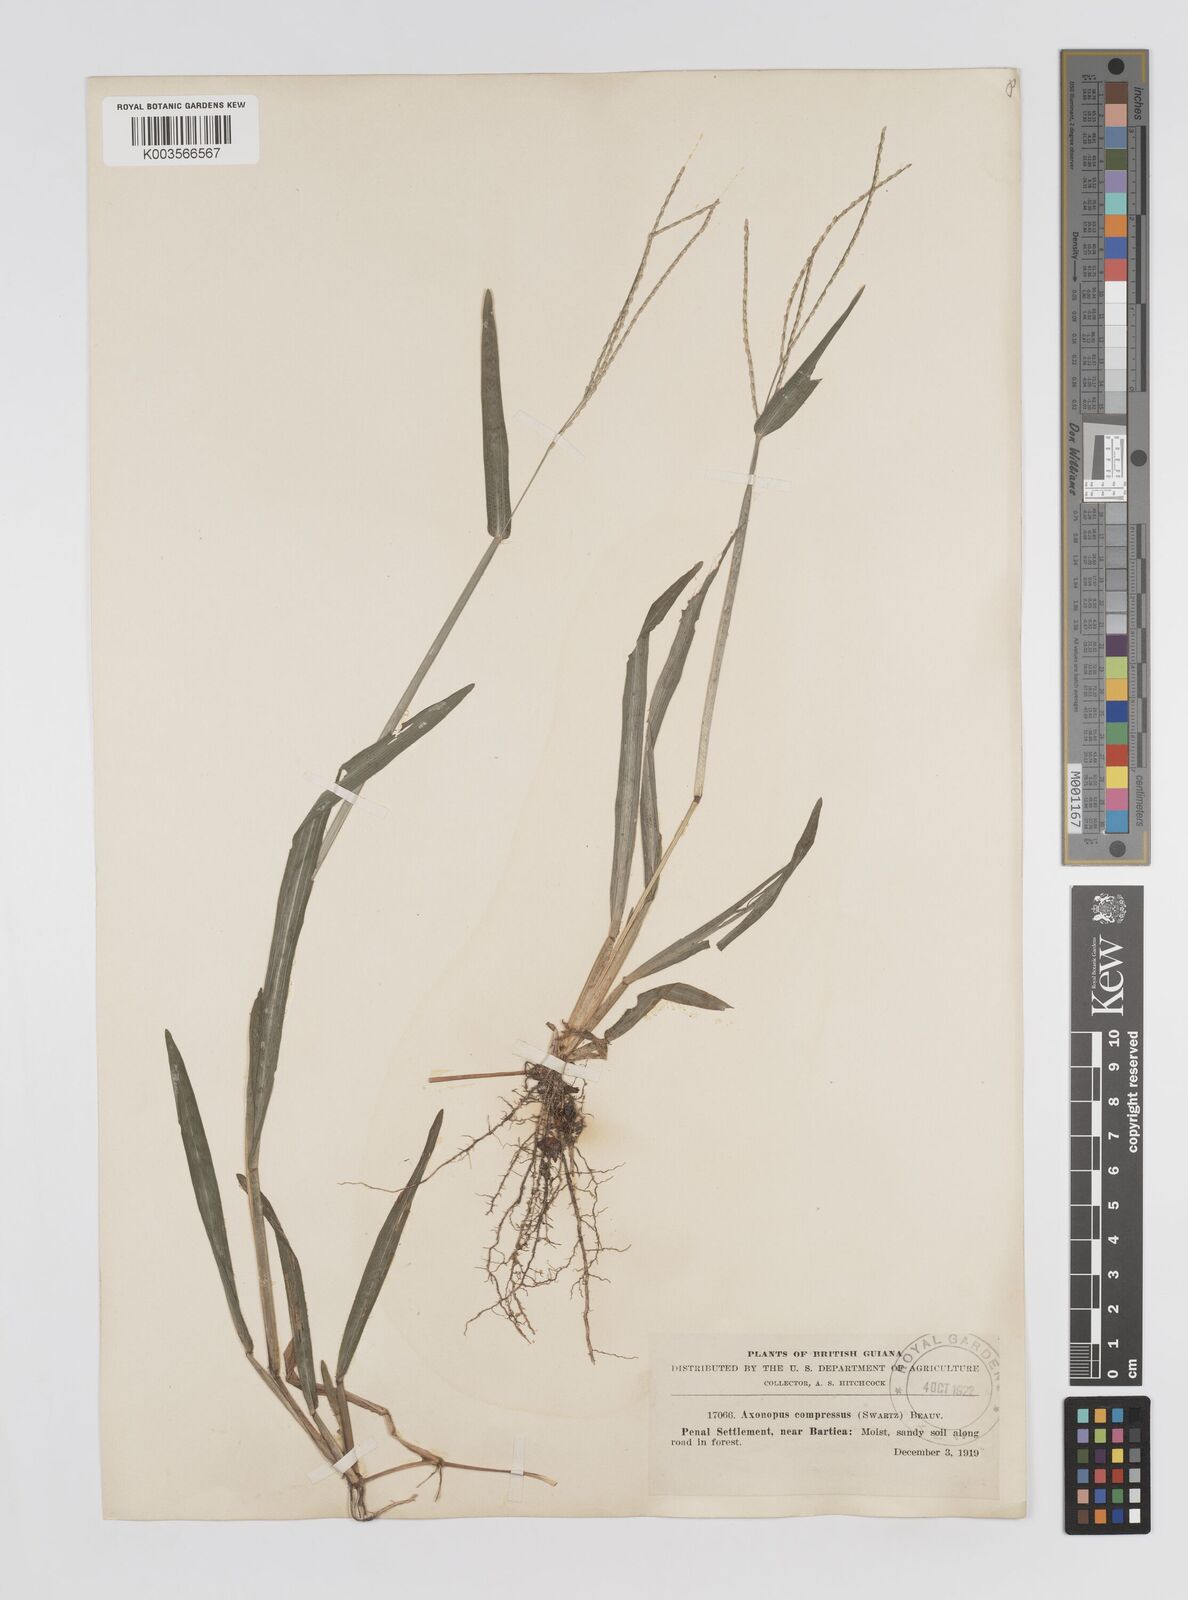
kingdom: Plantae
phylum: Tracheophyta
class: Liliopsida
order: Poales
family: Poaceae
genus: Axonopus
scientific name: Axonopus compressus
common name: American carpet grass
